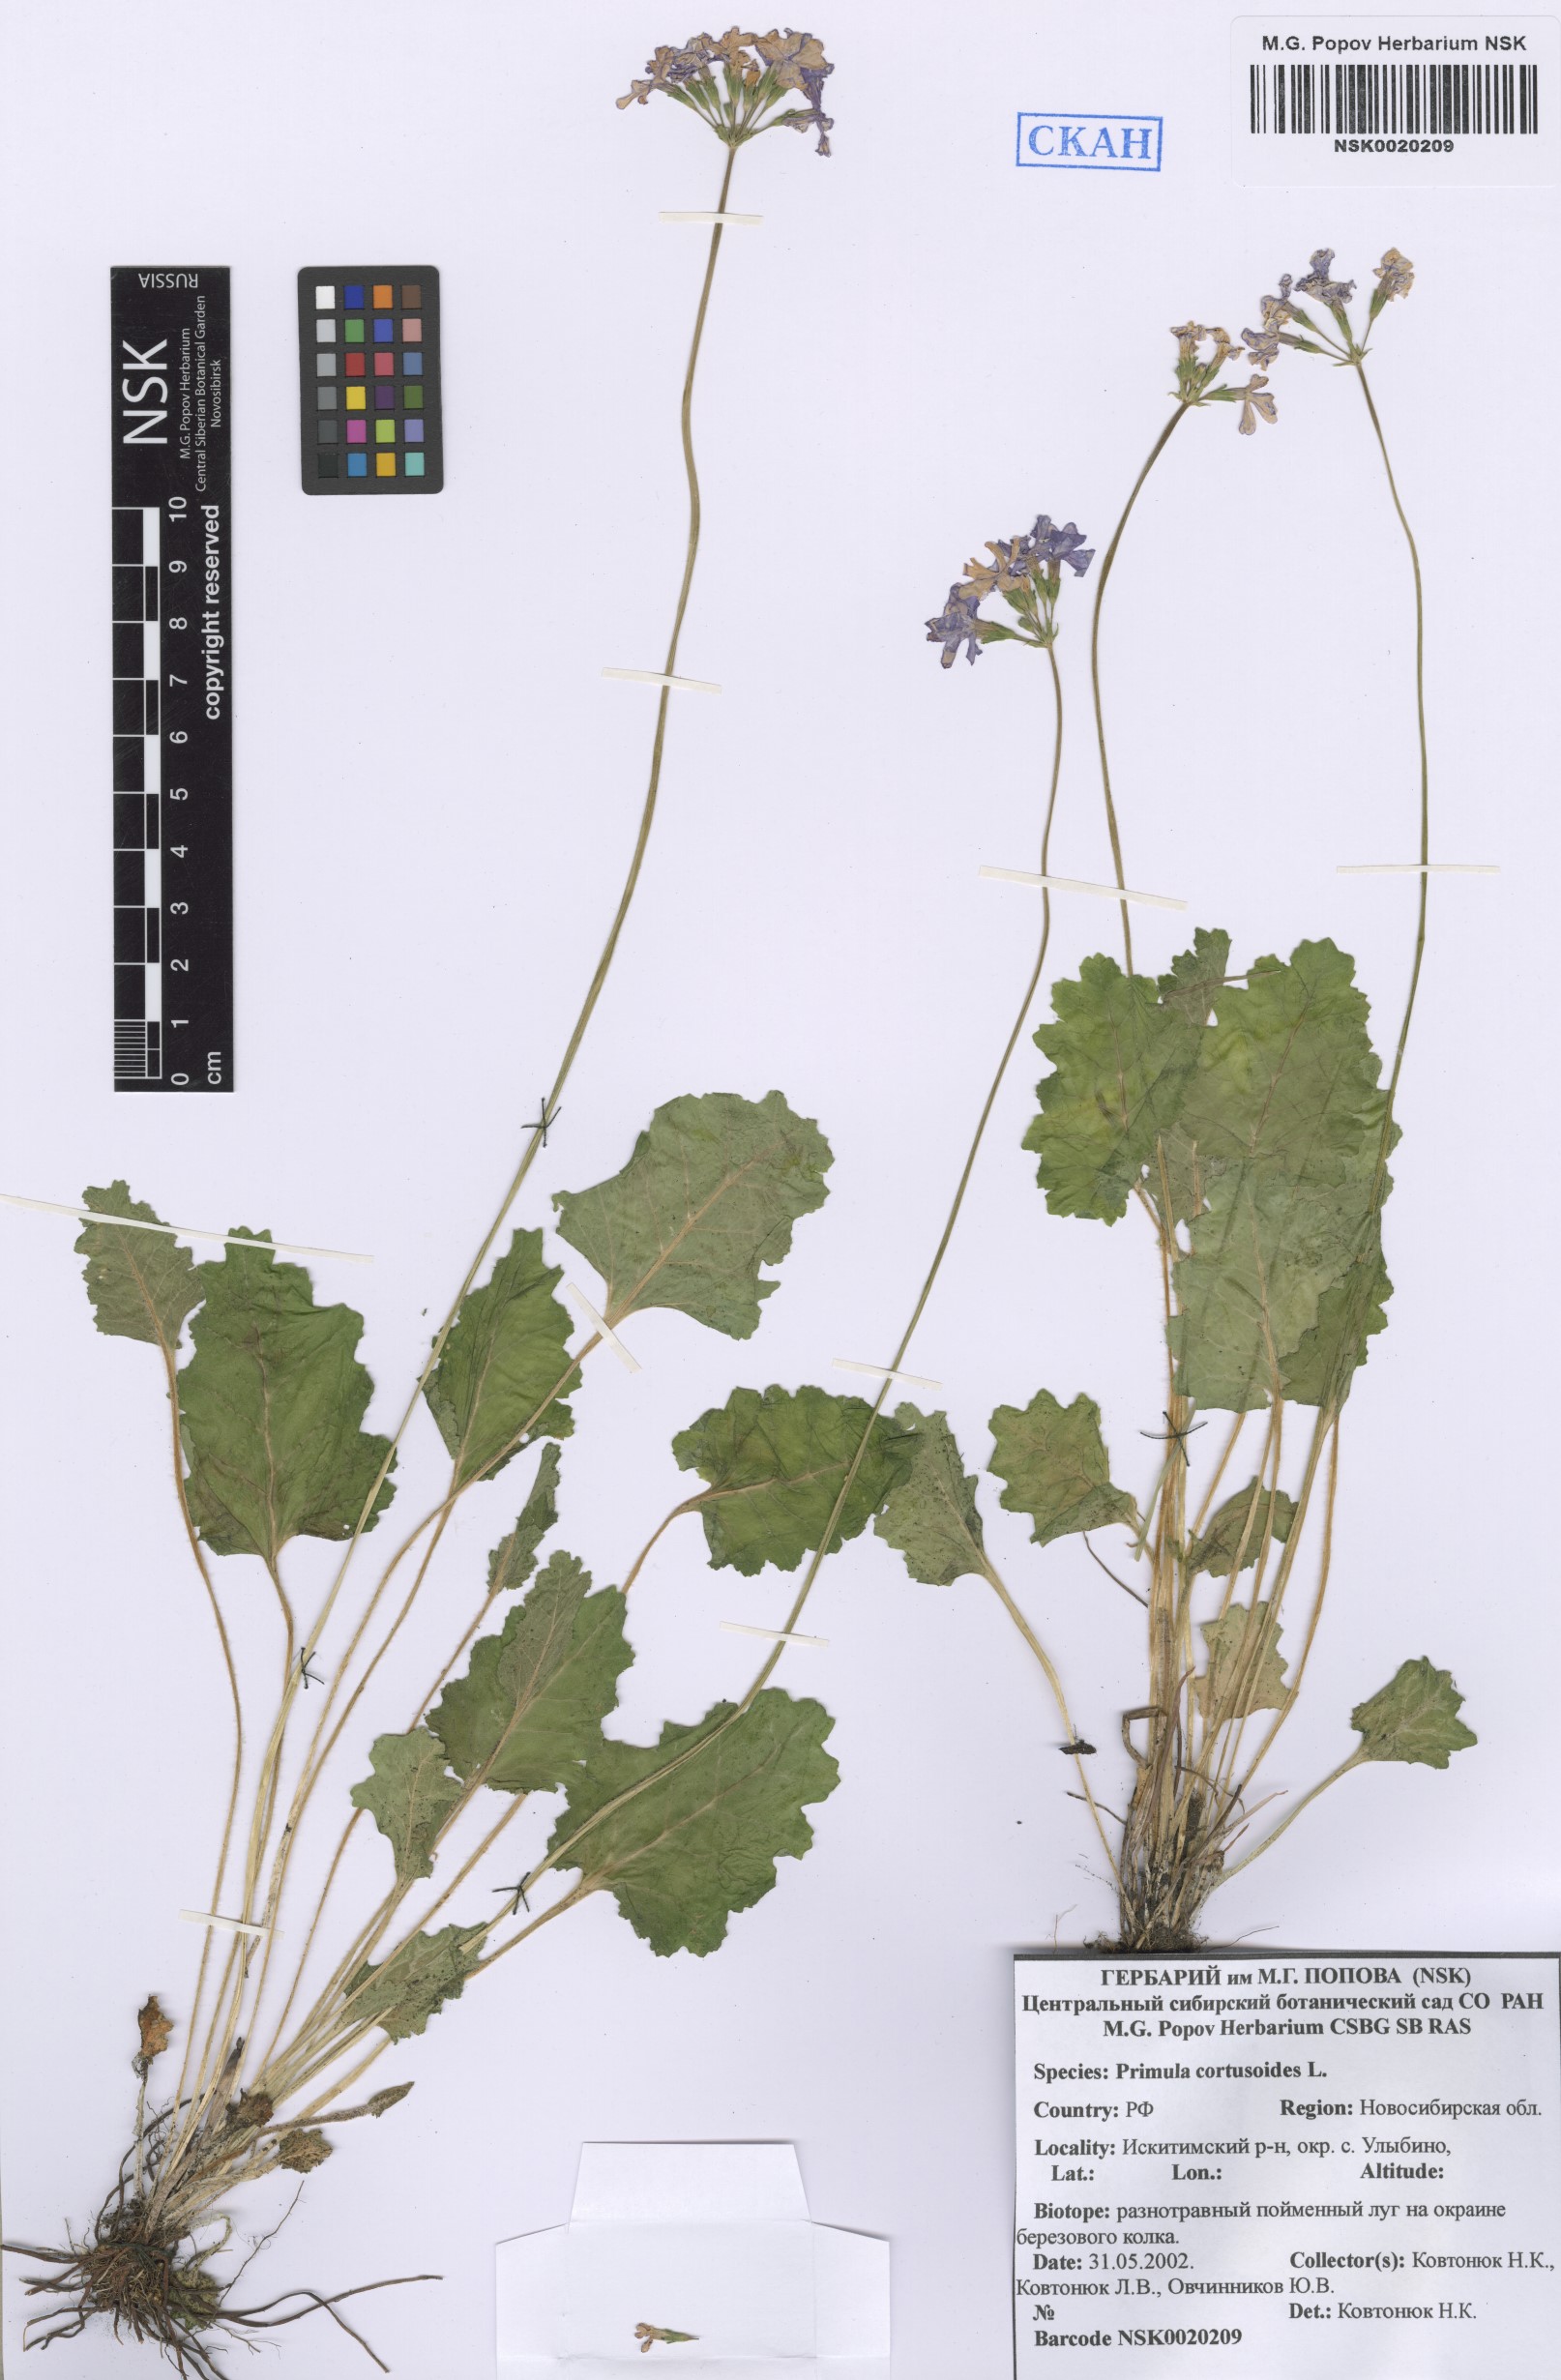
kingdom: Plantae
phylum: Tracheophyta
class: Magnoliopsida
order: Ericales
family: Primulaceae
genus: Primula
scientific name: Primula cortusoides
